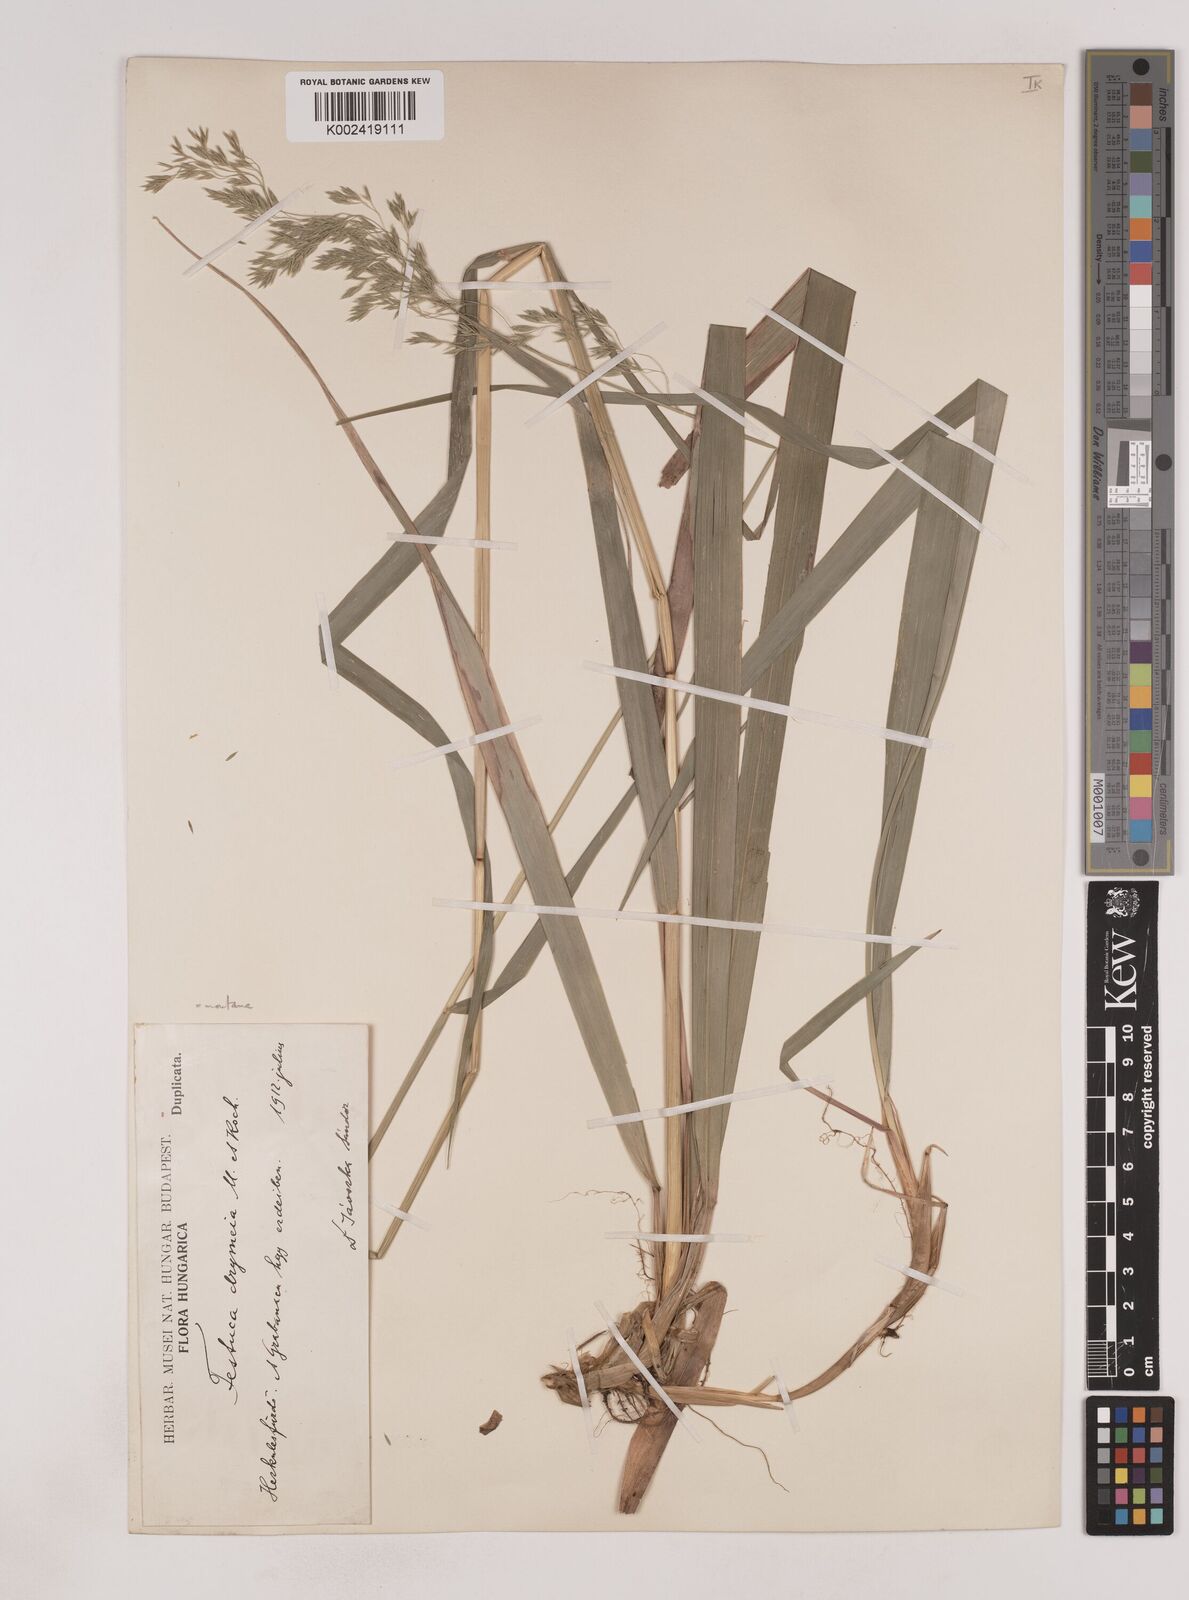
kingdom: Plantae
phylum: Tracheophyta
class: Liliopsida
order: Poales
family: Poaceae
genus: Festuca
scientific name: Festuca drymeja
